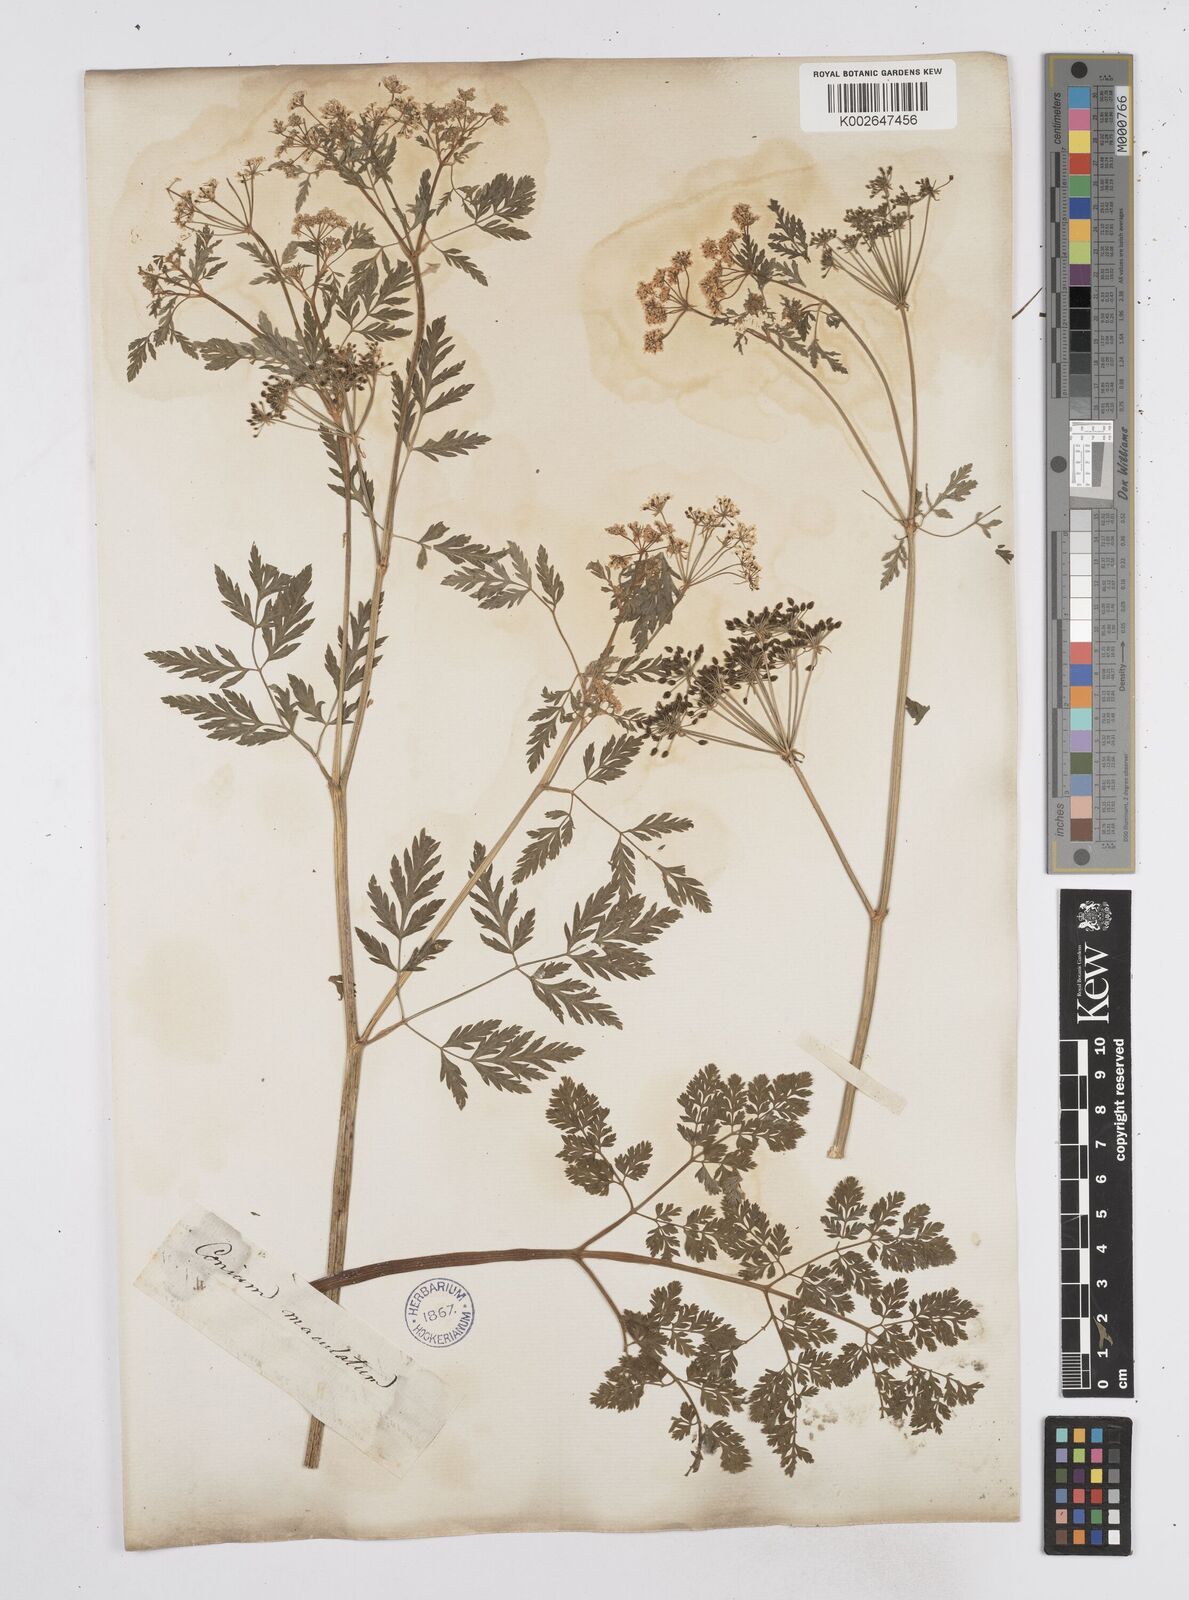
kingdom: Plantae
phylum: Tracheophyta
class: Magnoliopsida
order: Apiales
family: Apiaceae
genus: Conium
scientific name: Conium maculatum
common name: Hemlock
